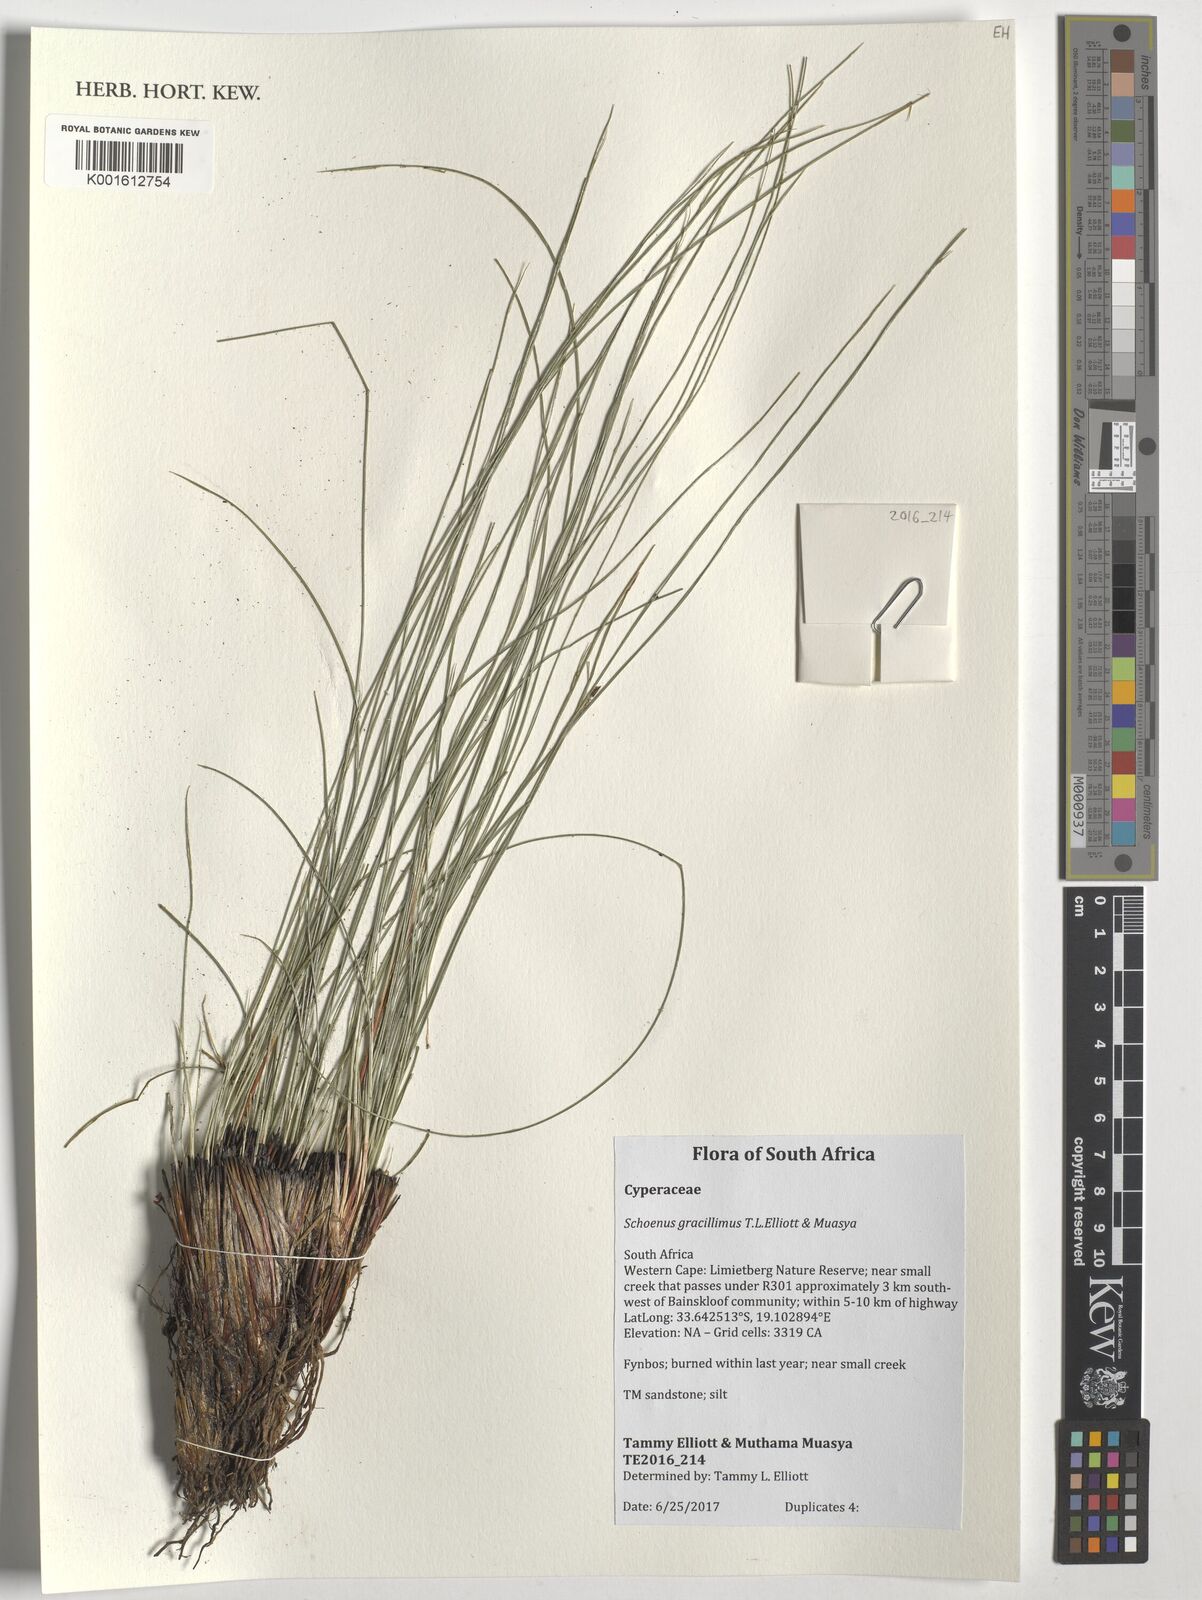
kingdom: Plantae
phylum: Tracheophyta
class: Liliopsida
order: Poales
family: Cyperaceae
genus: Schoenus
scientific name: Schoenus gracillimus
